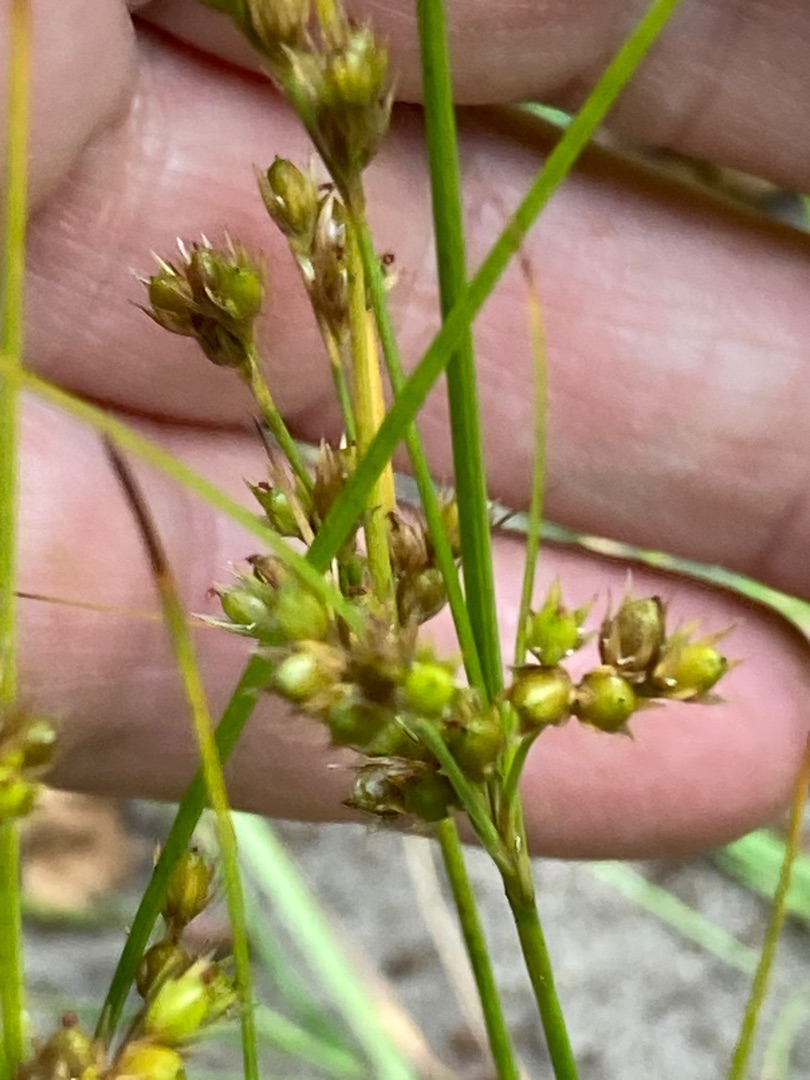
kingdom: Plantae
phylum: Tracheophyta
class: Liliopsida
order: Poales
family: Juncaceae
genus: Juncus
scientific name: Juncus tenuis
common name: Tue-siv
